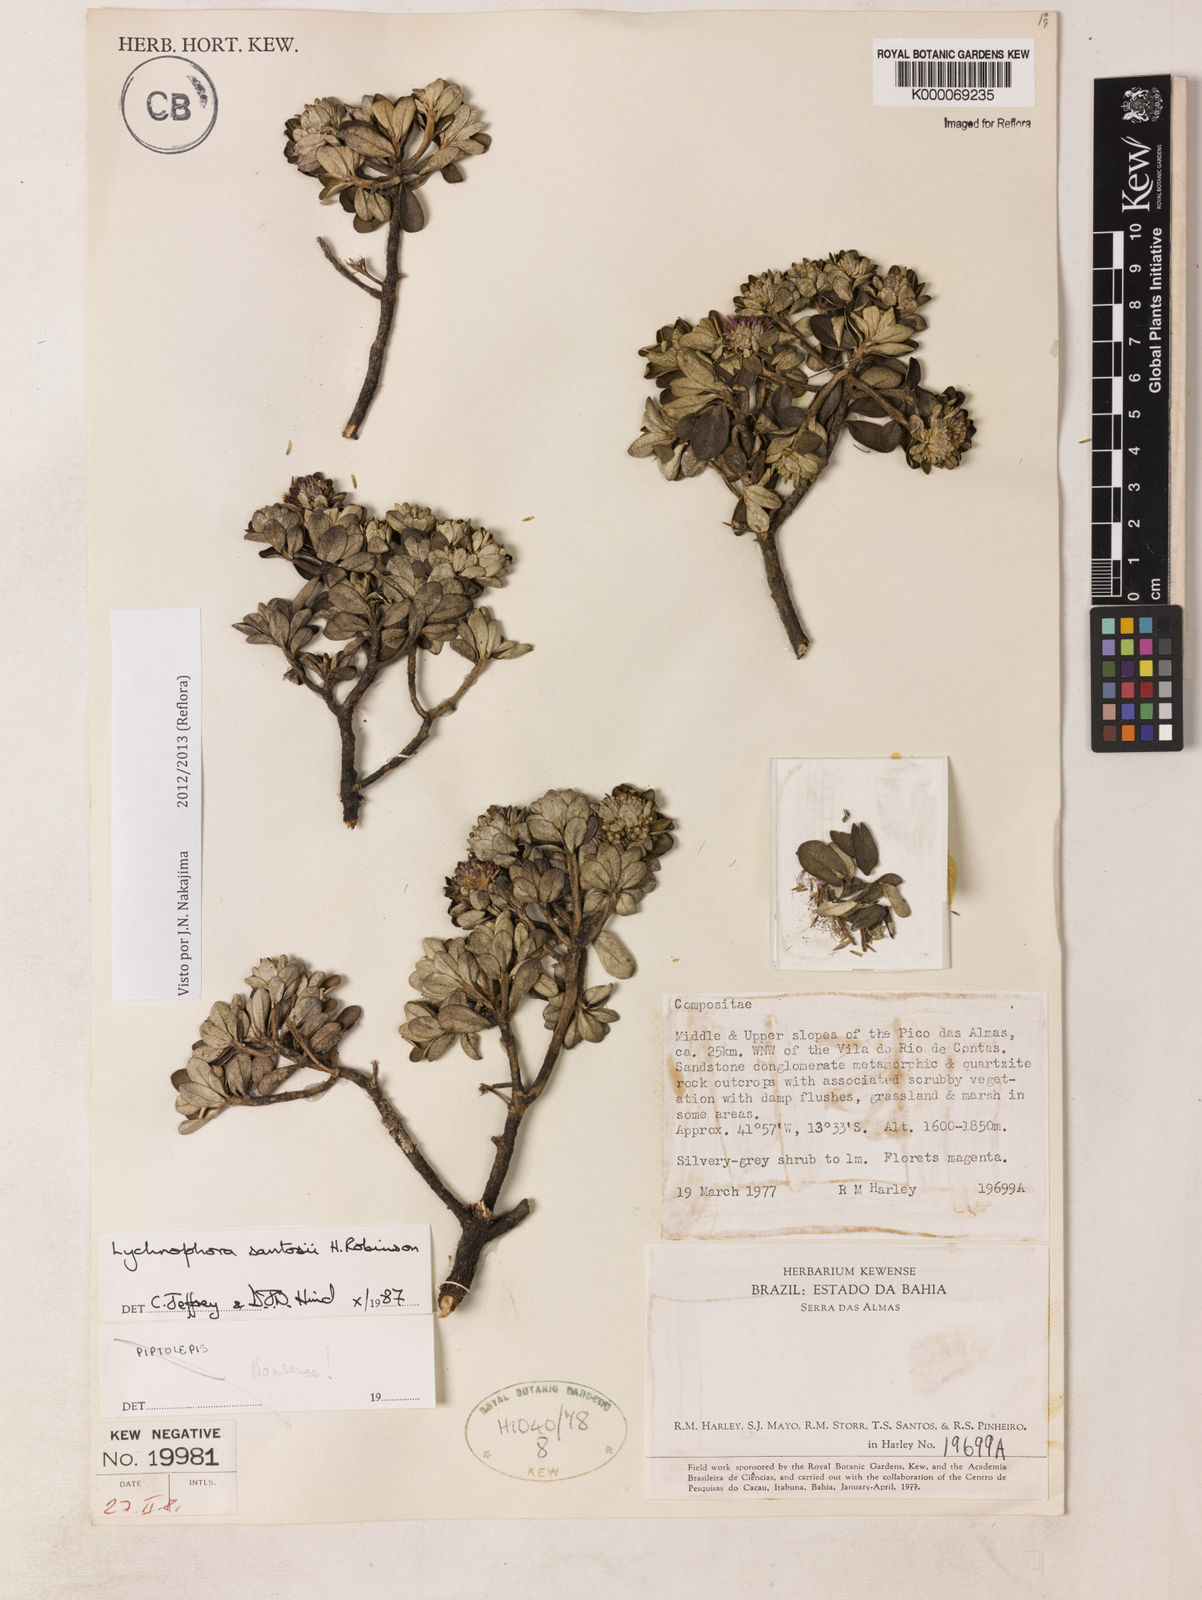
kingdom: Plantae
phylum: Tracheophyta
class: Magnoliopsida
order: Asterales
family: Asteraceae
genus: Lychnophorella
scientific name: Lychnophorella santosii
